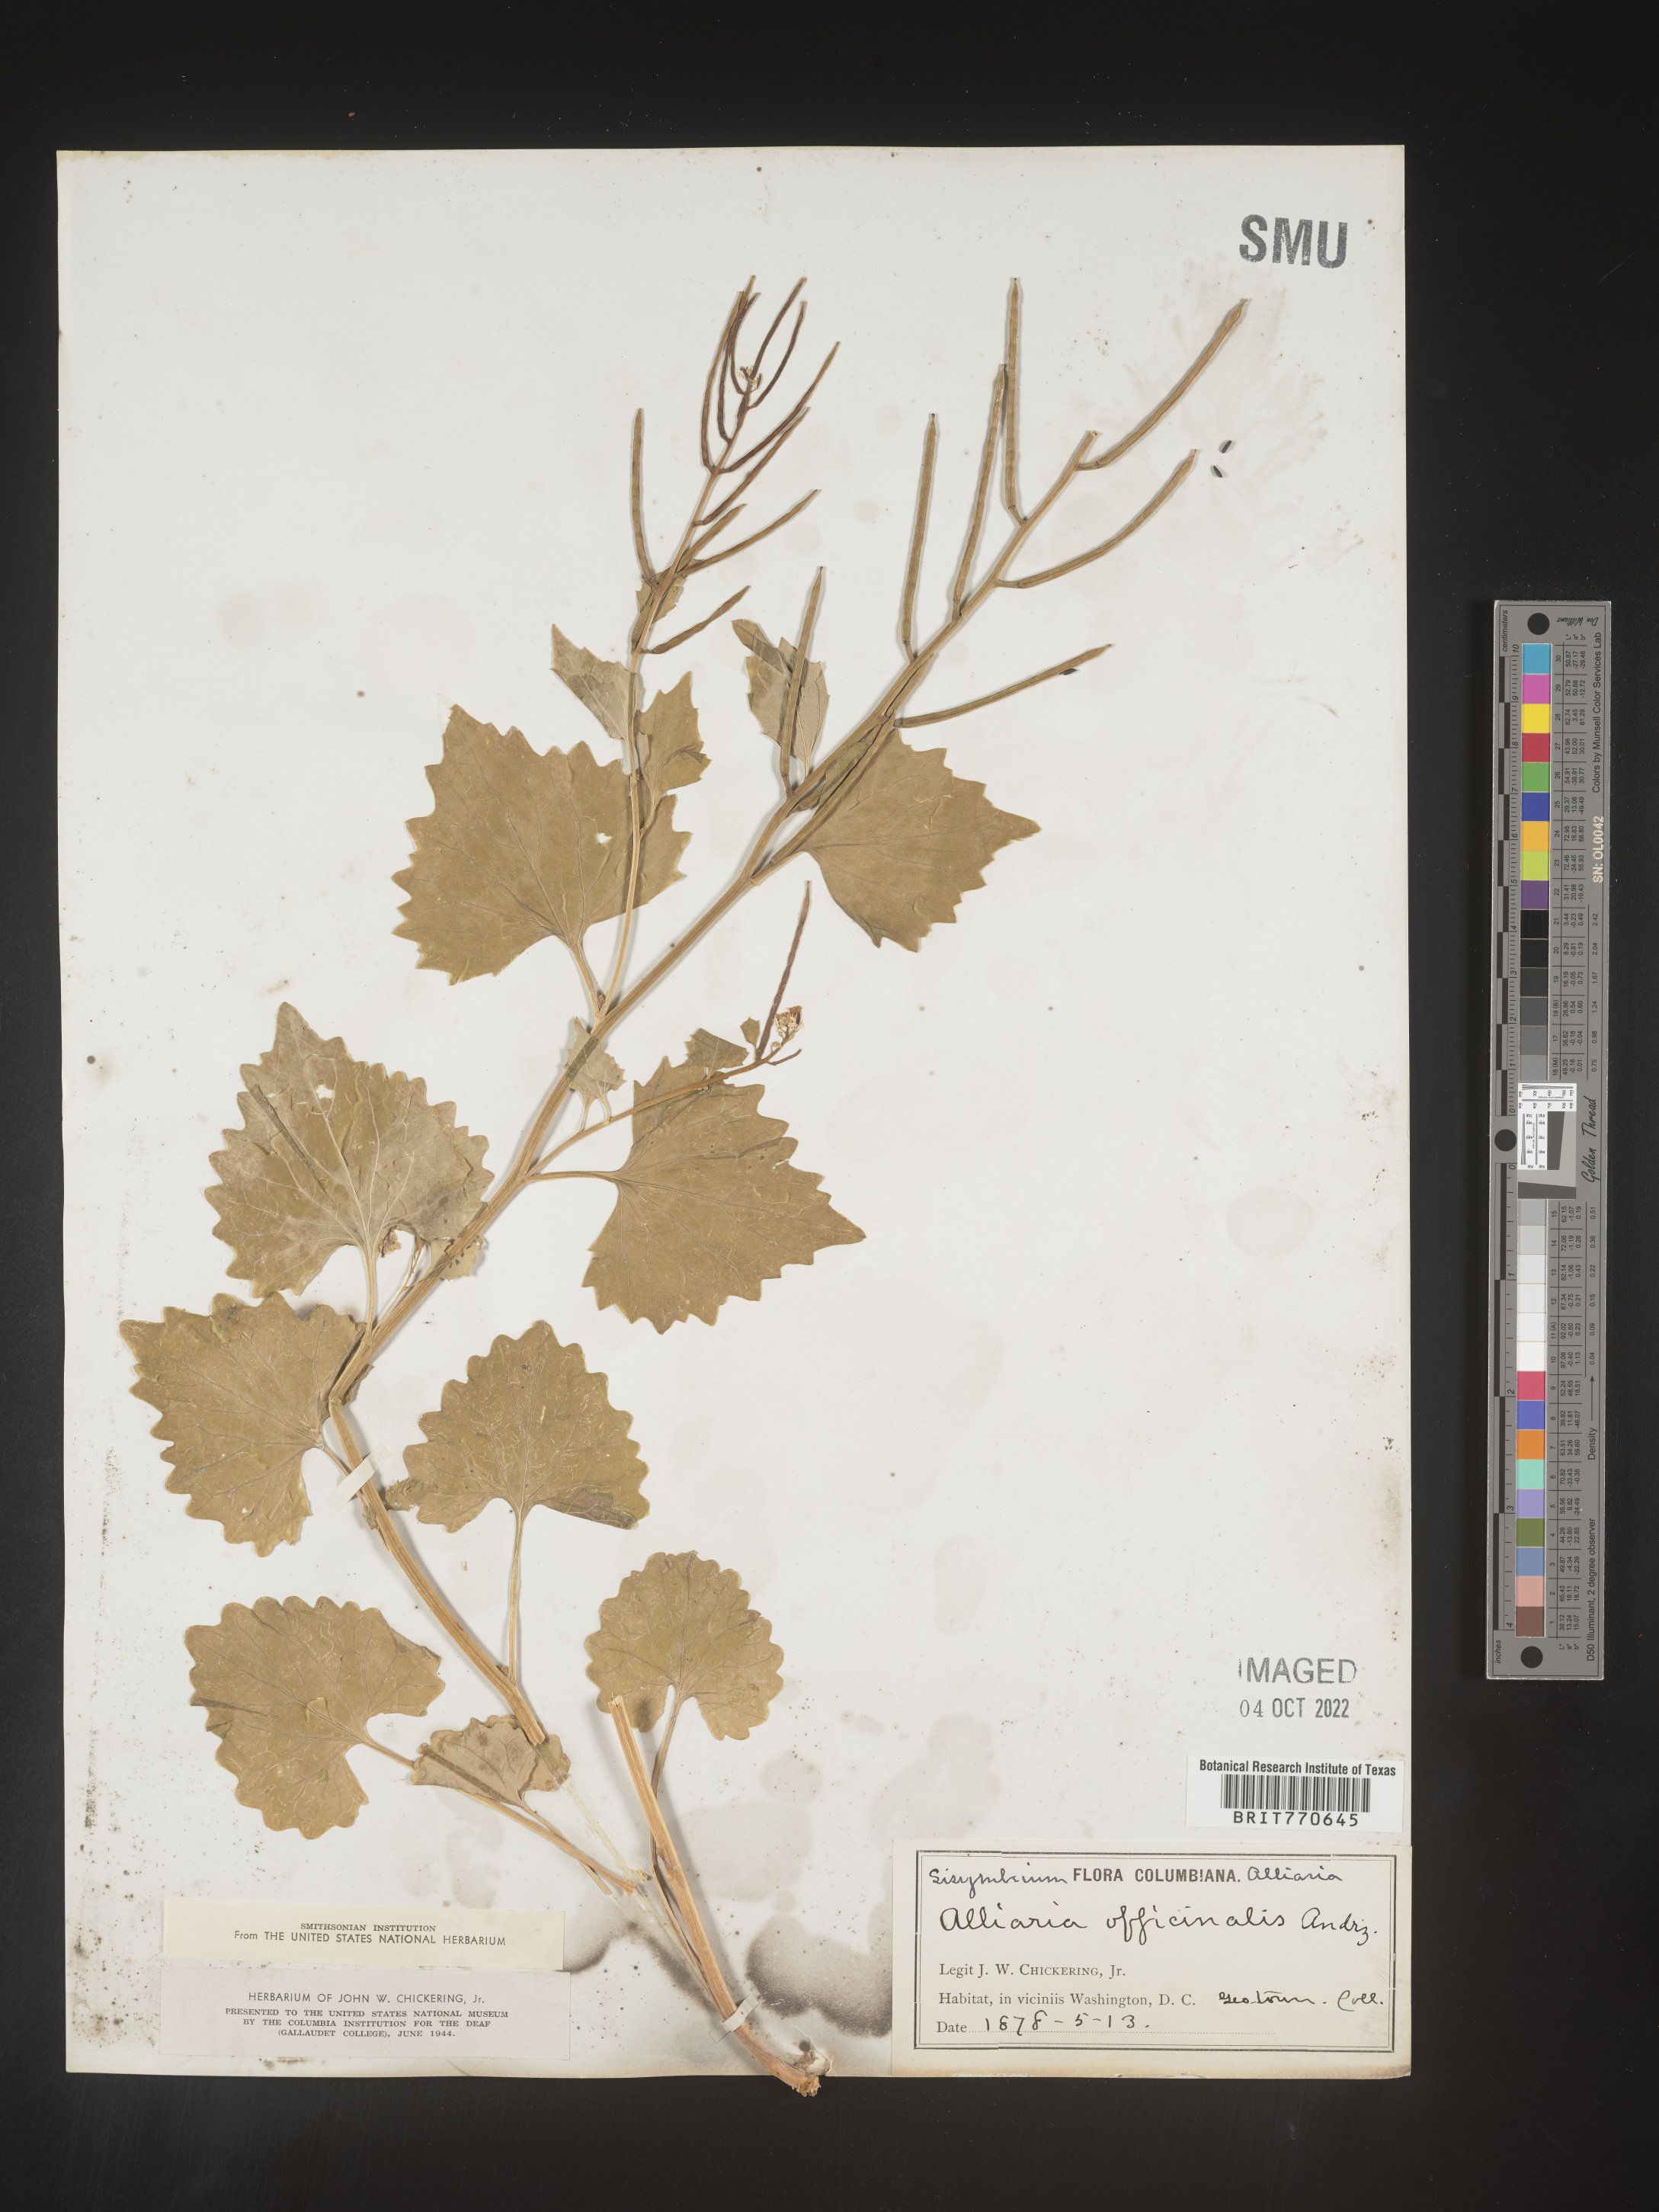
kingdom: Plantae
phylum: Tracheophyta
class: Magnoliopsida
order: Brassicales
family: Brassicaceae
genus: Alliaria
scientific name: Alliaria
